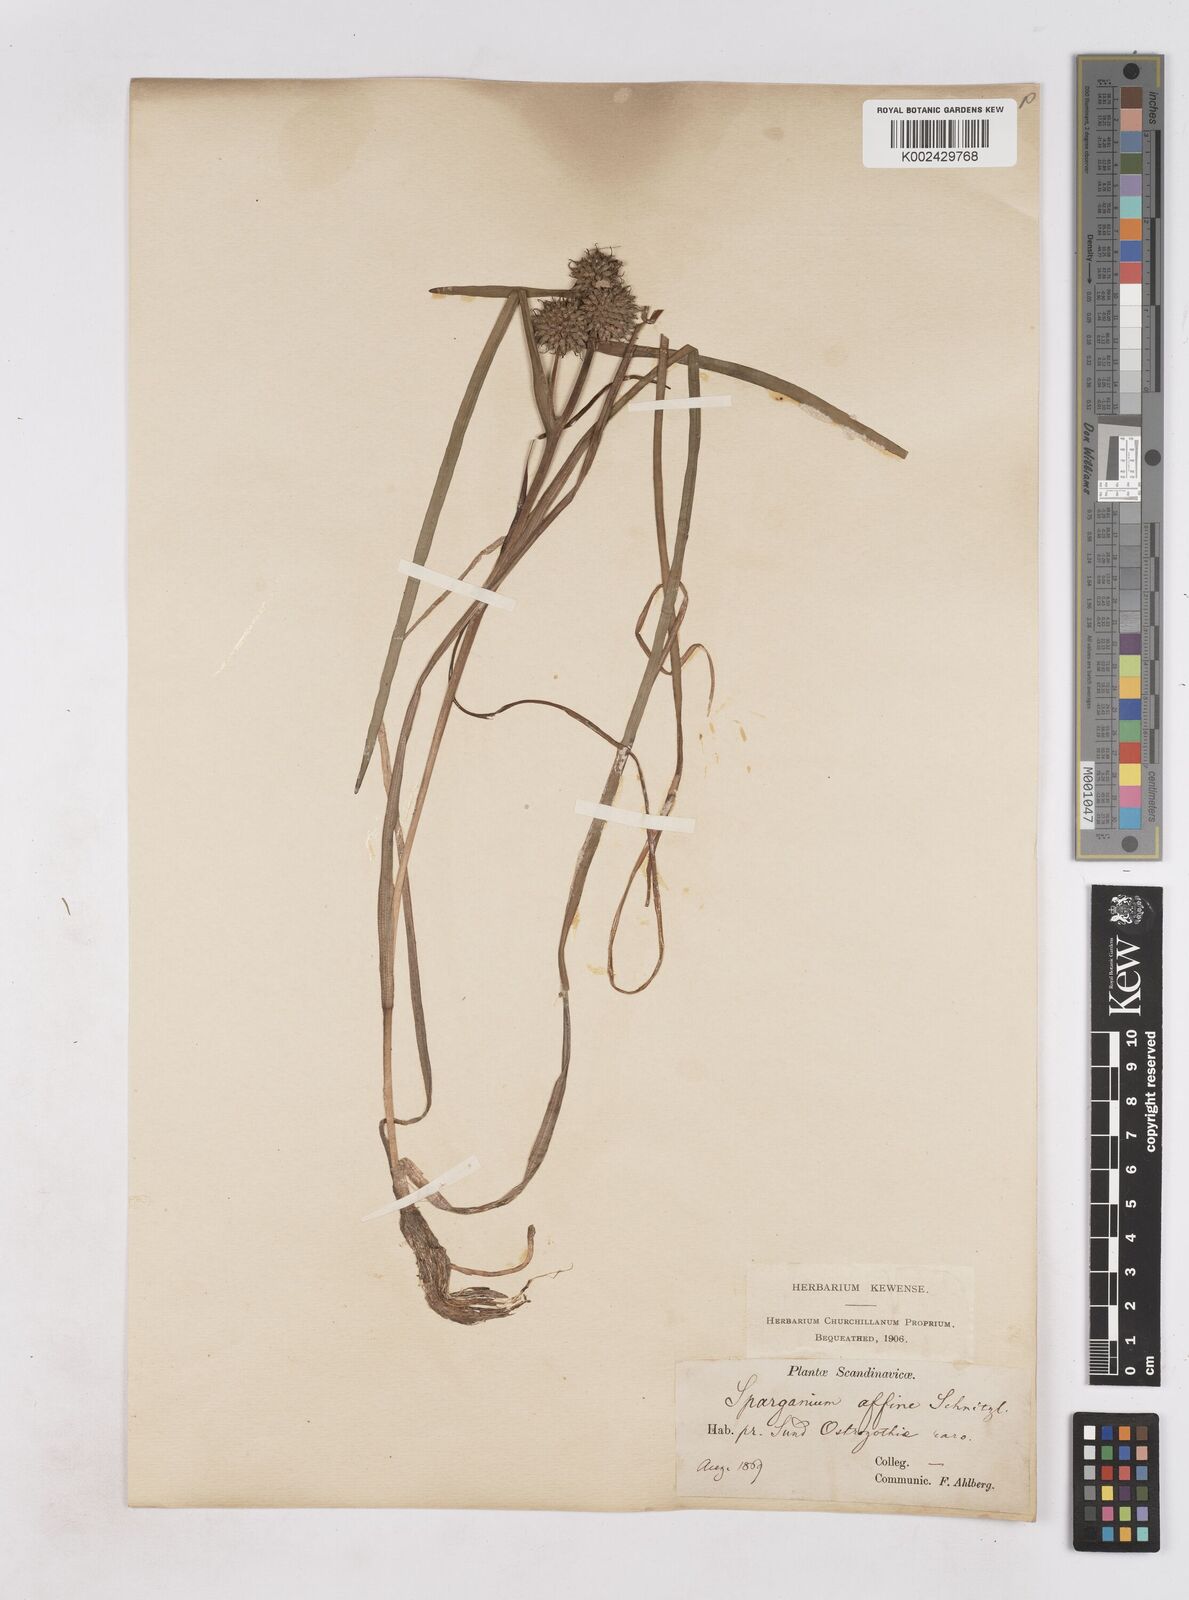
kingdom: Plantae
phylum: Tracheophyta
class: Liliopsida
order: Poales
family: Typhaceae
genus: Sparganium
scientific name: Sparganium angustifolium
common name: Floating bur-reed
